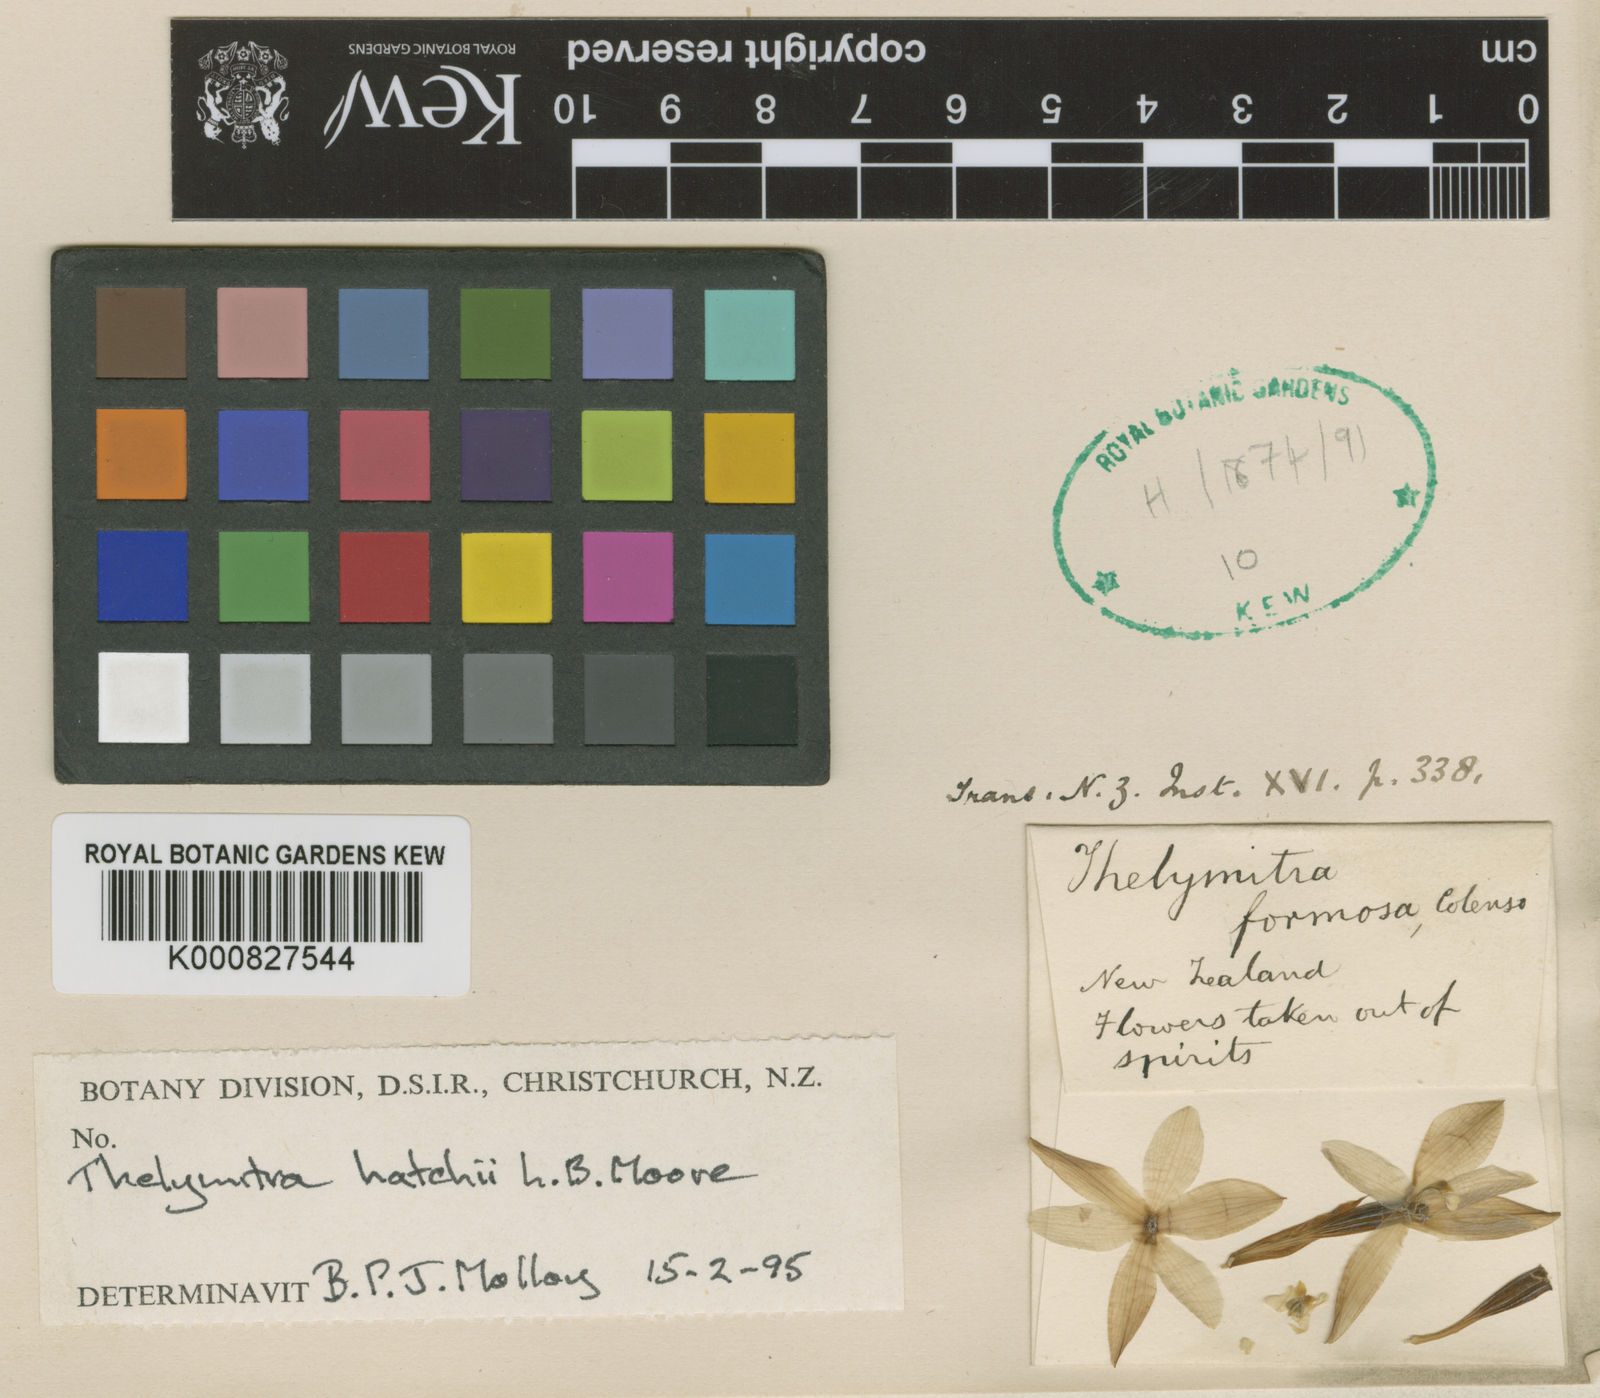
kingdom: Plantae
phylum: Tracheophyta
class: Liliopsida
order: Asparagales
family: Orchidaceae
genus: Thelymitra
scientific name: Thelymitra hatchii
